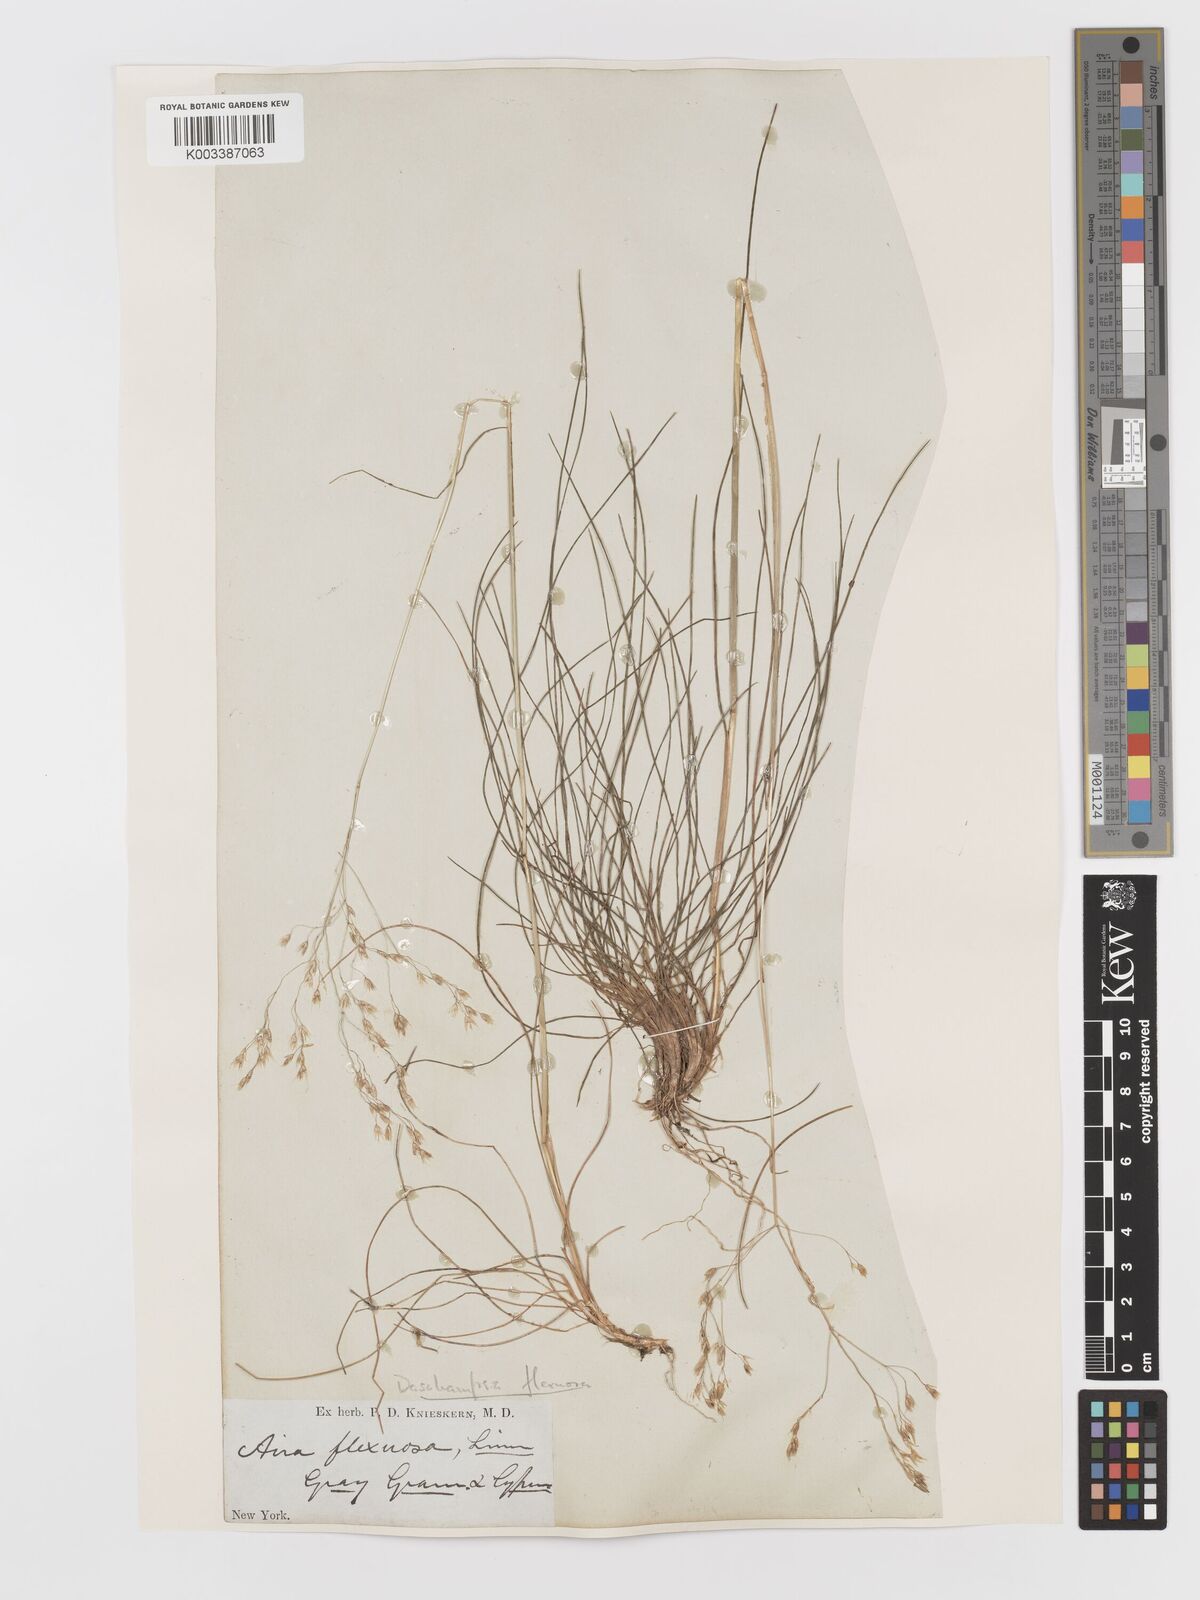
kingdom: Plantae
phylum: Tracheophyta
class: Liliopsida
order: Poales
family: Poaceae
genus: Avenella
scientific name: Avenella flexuosa
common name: Wavy hairgrass
